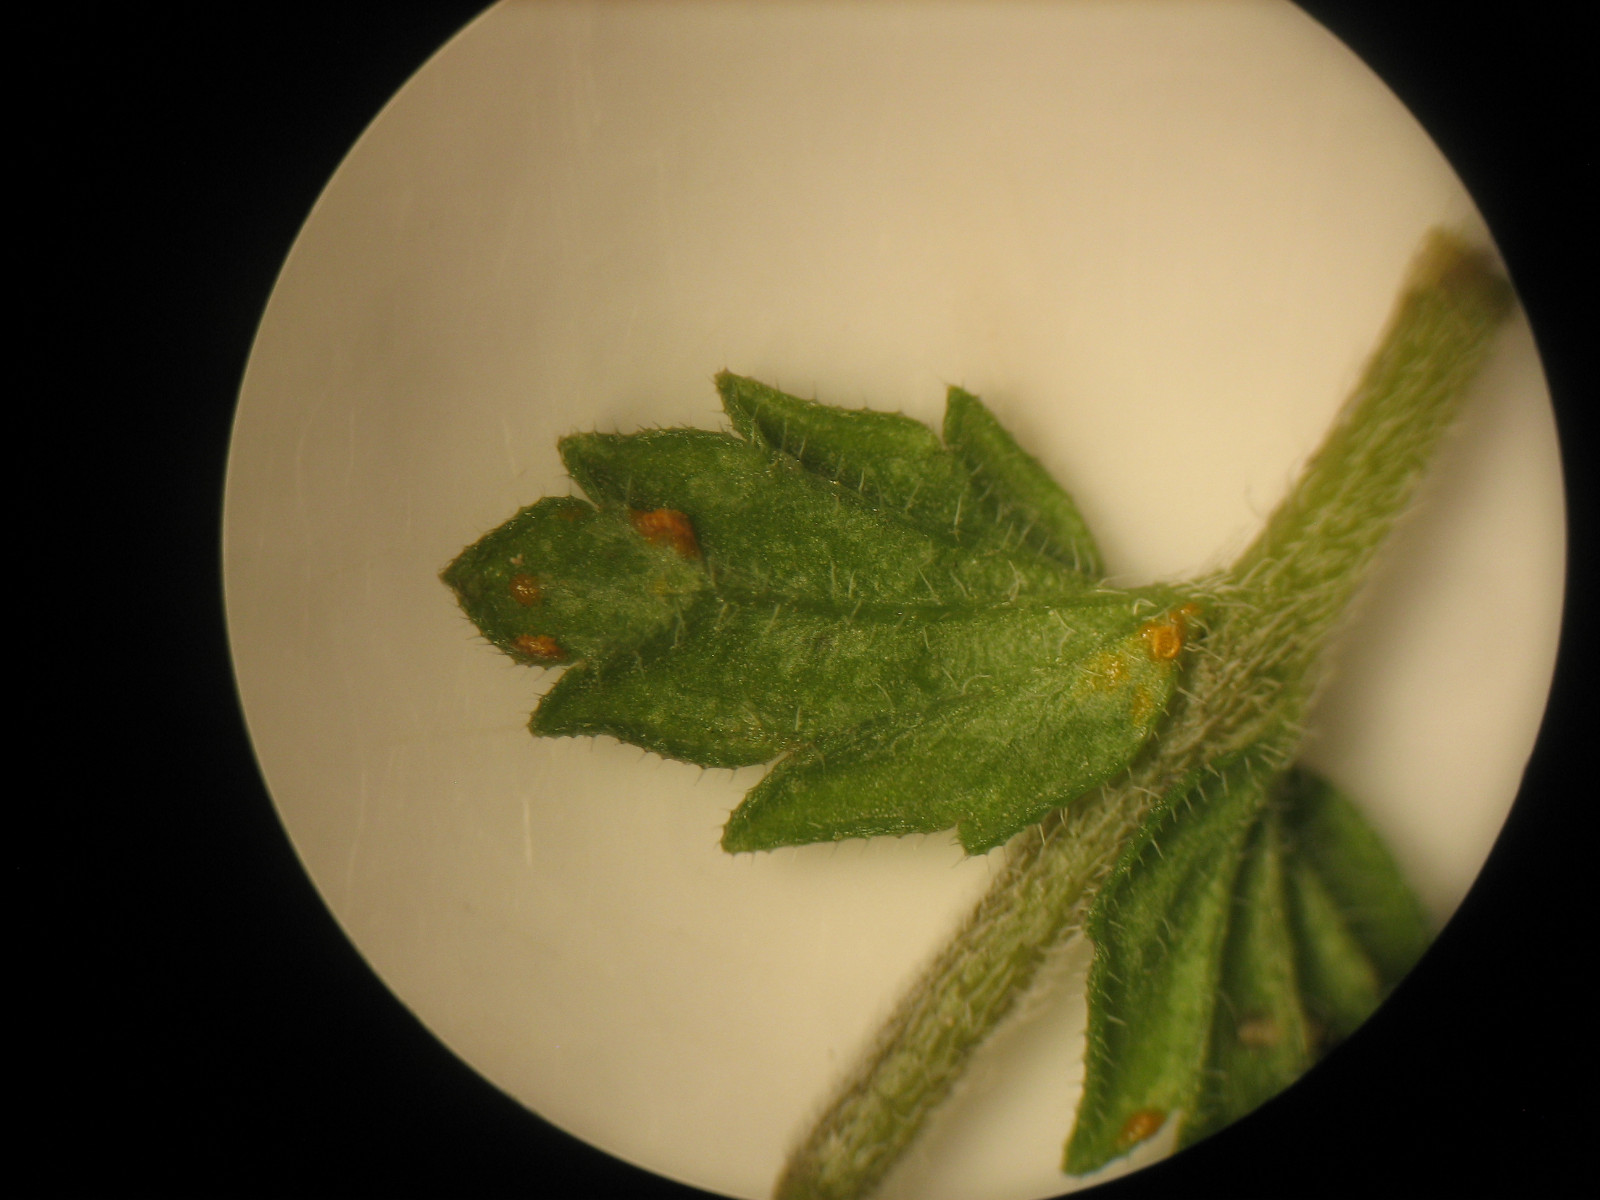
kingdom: Fungi
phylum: Basidiomycota
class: Pucciniomycetes
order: Pucciniales
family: Coleosporiaceae
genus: Coleosporium
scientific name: Coleosporium tussilaginis
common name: almindelig fyrrenålerust
